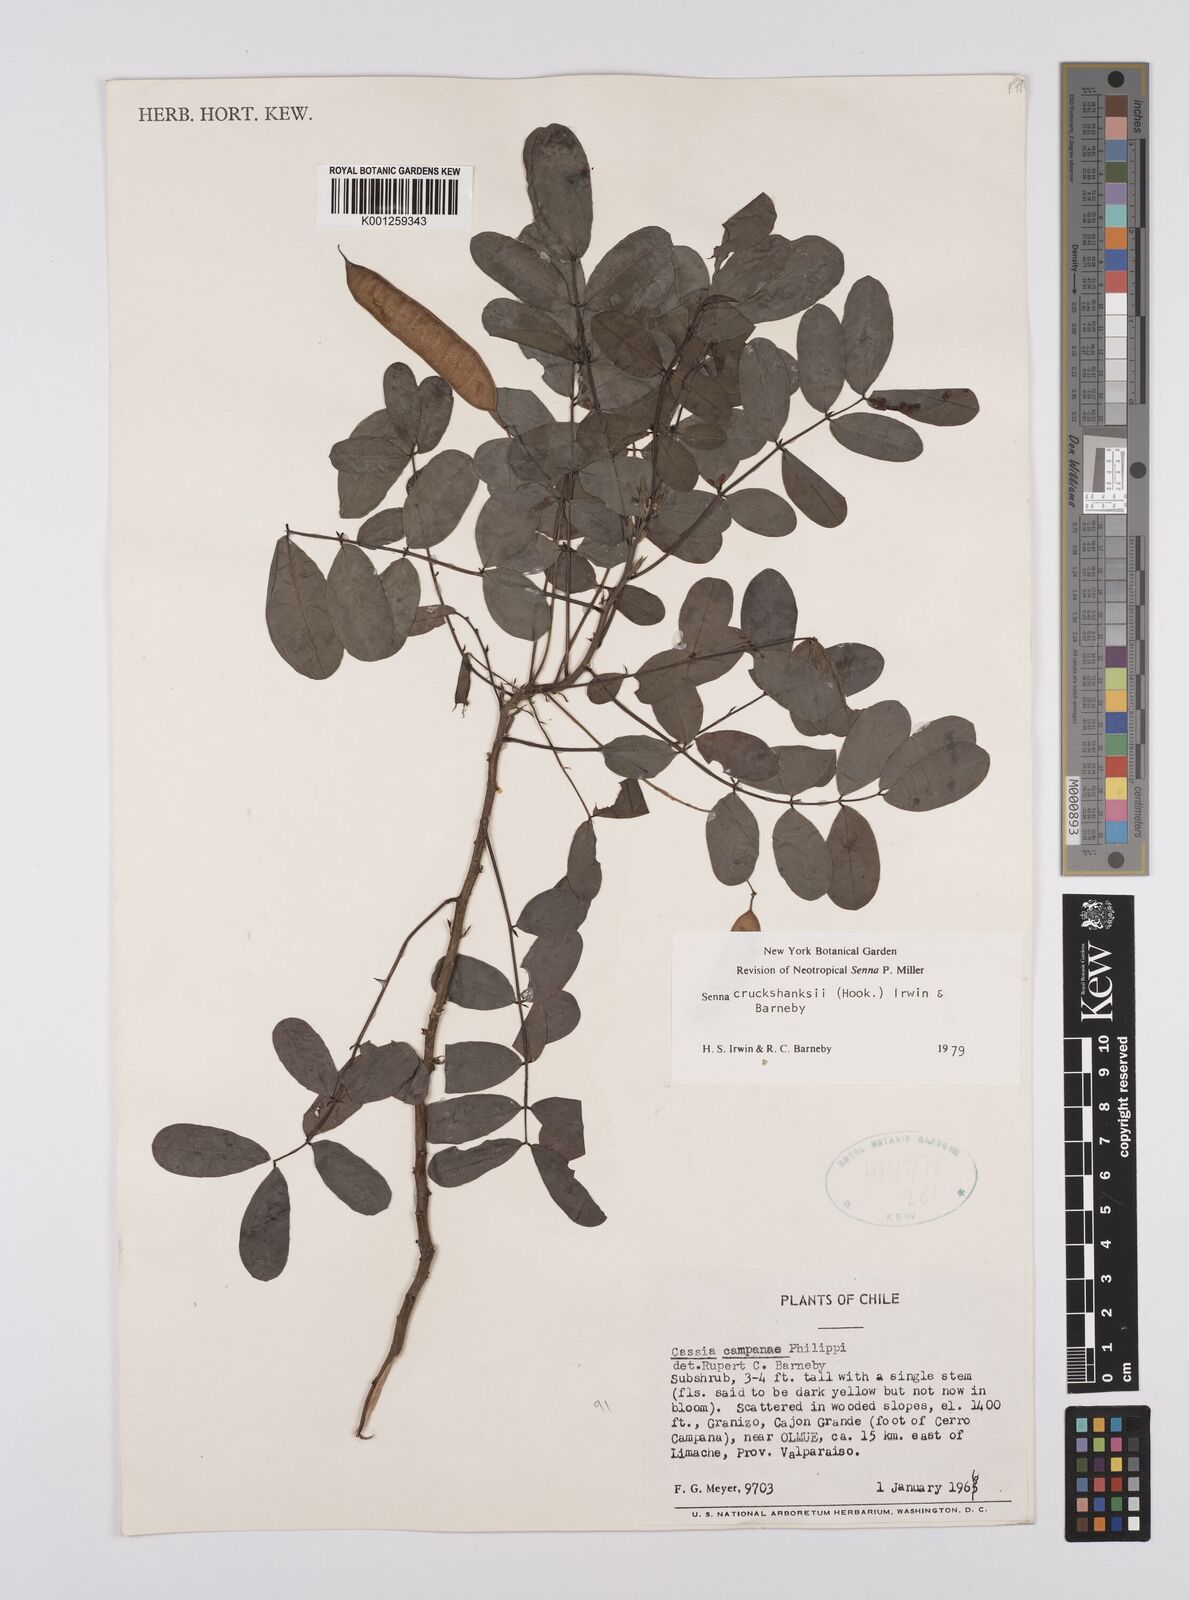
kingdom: Plantae
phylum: Tracheophyta
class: Magnoliopsida
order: Fabales
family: Fabaceae
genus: Senna
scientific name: Senna cruckshanksii
